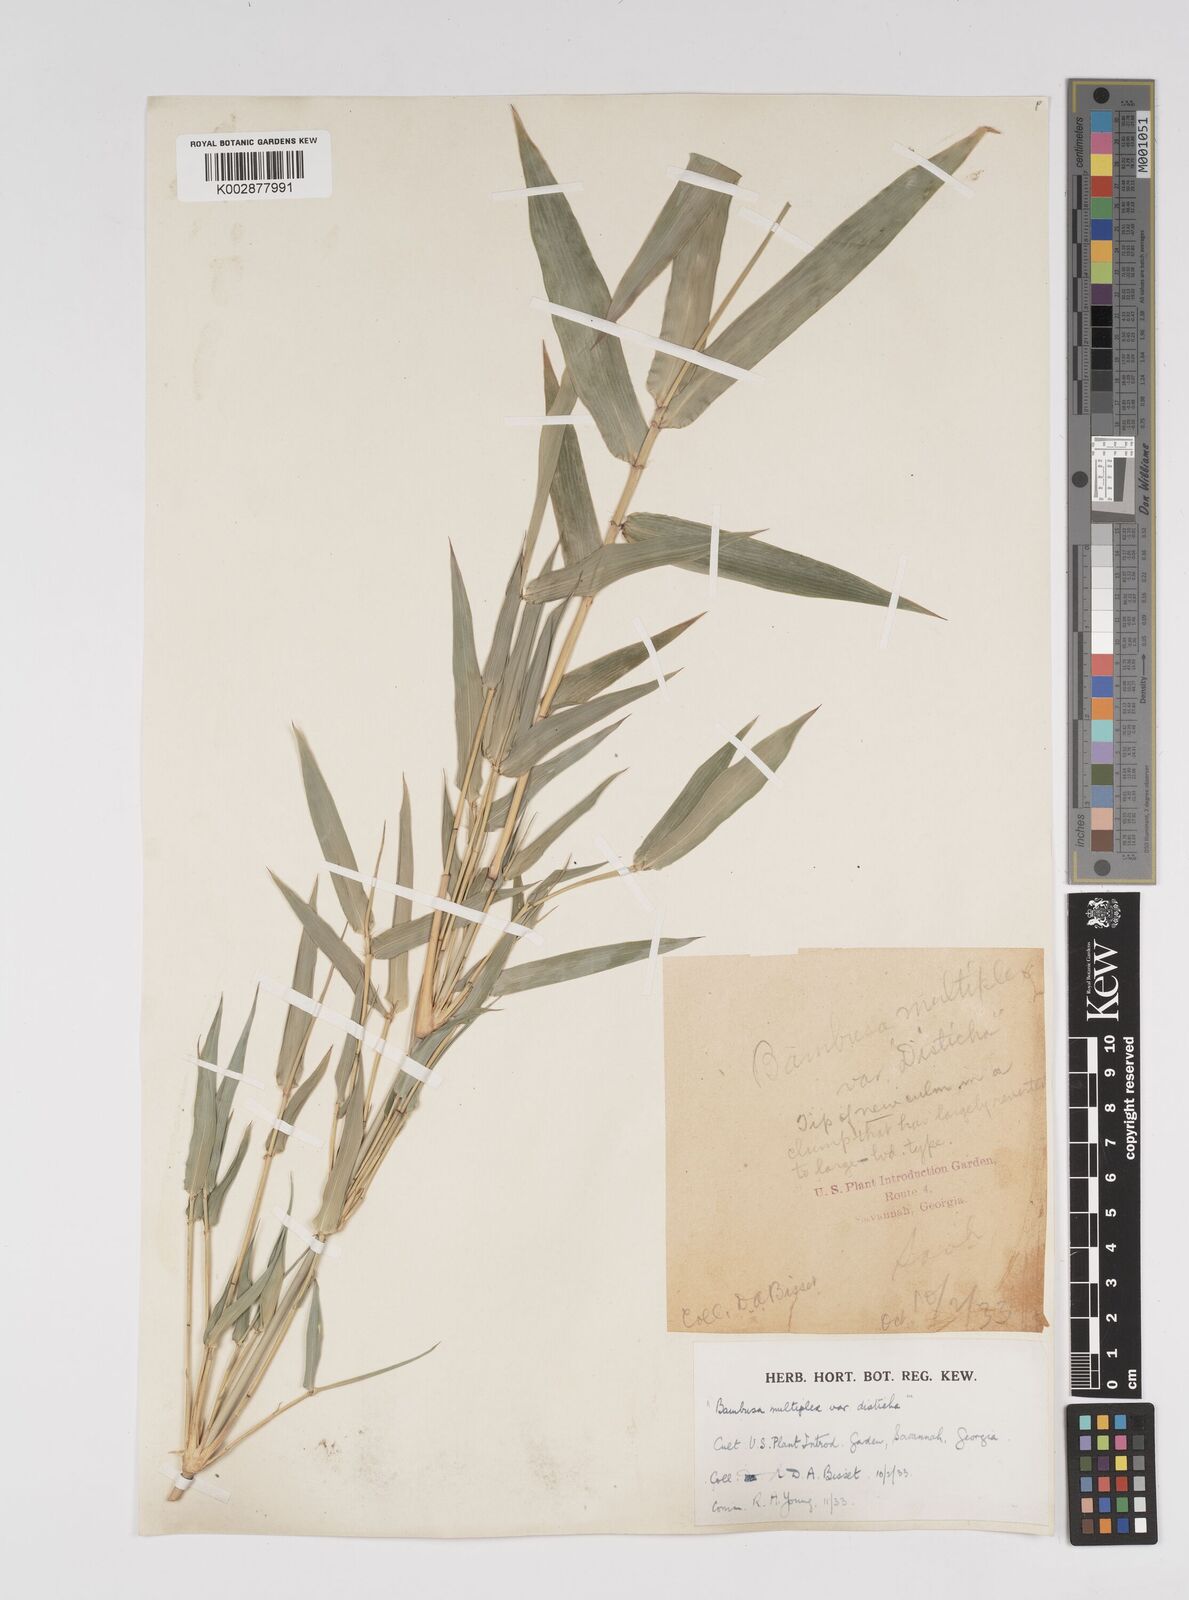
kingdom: Plantae
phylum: Tracheophyta
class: Liliopsida
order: Poales
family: Poaceae
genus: Bambusa
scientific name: Bambusa
